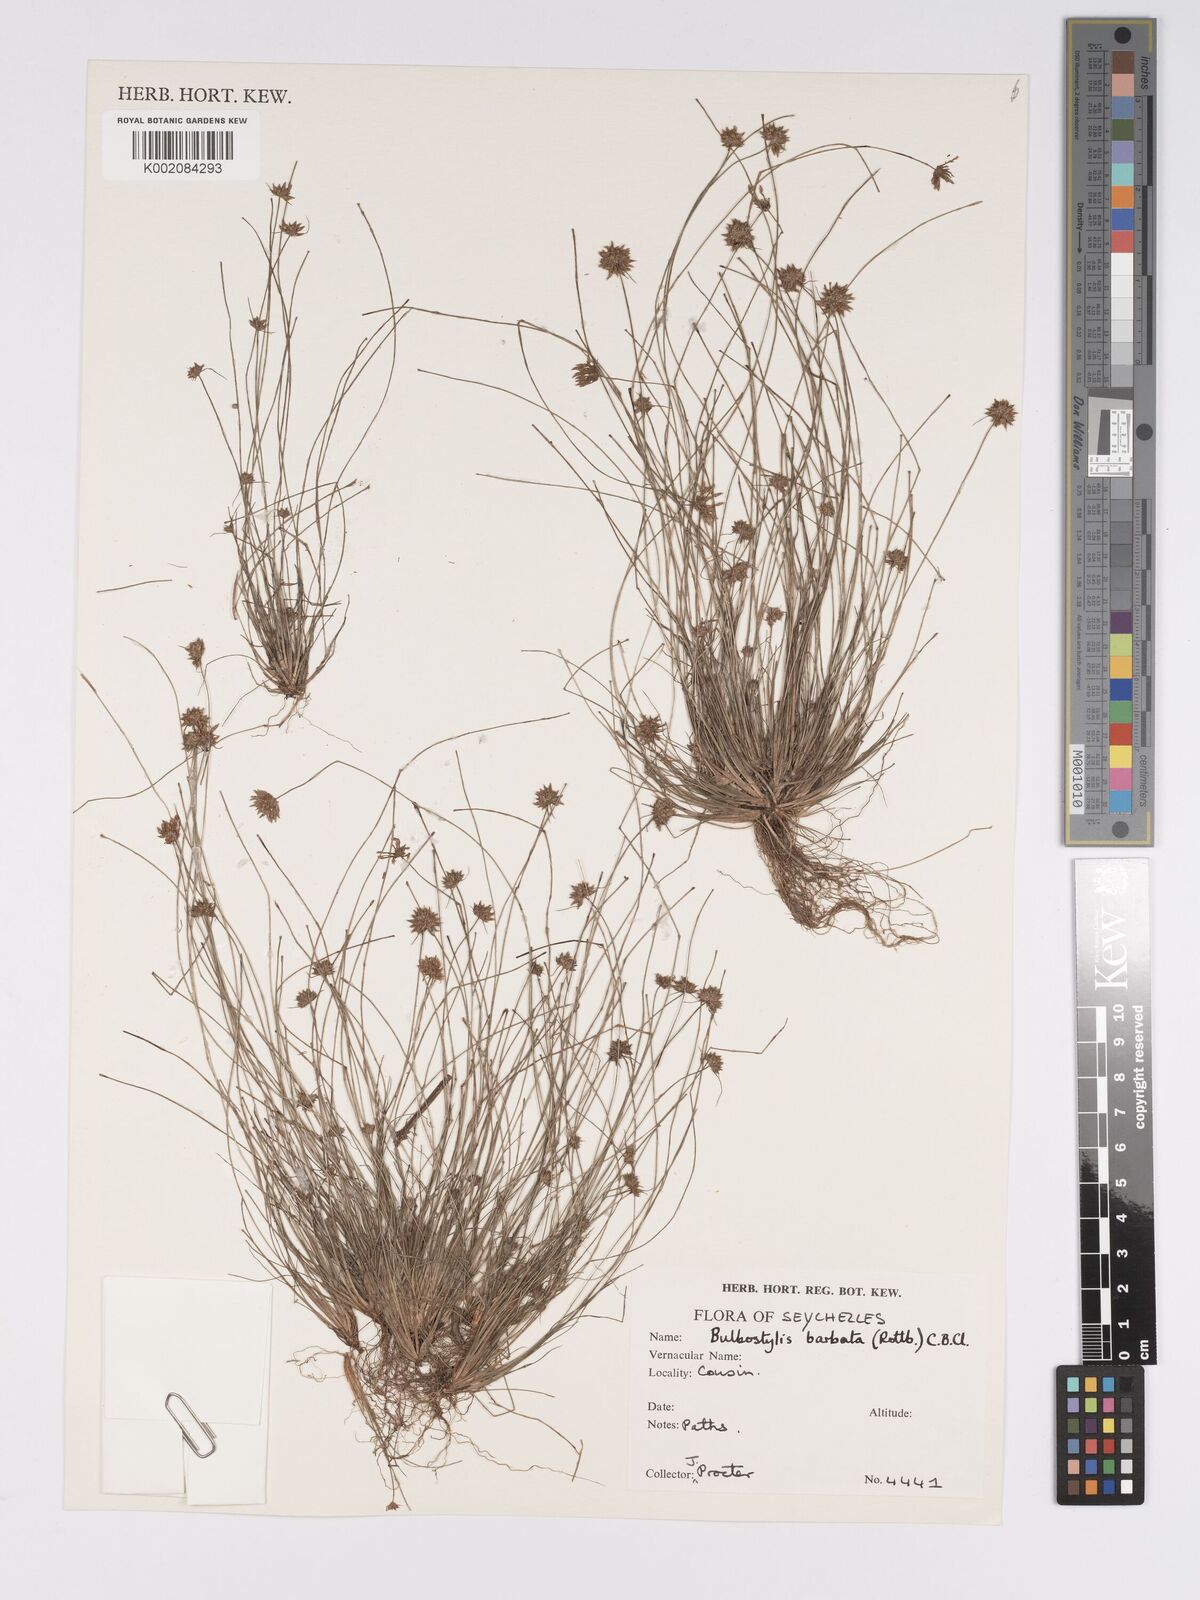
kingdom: Plantae
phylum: Tracheophyta
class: Liliopsida
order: Poales
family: Cyperaceae
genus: Bulbostylis
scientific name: Bulbostylis barbata
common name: Watergrass
